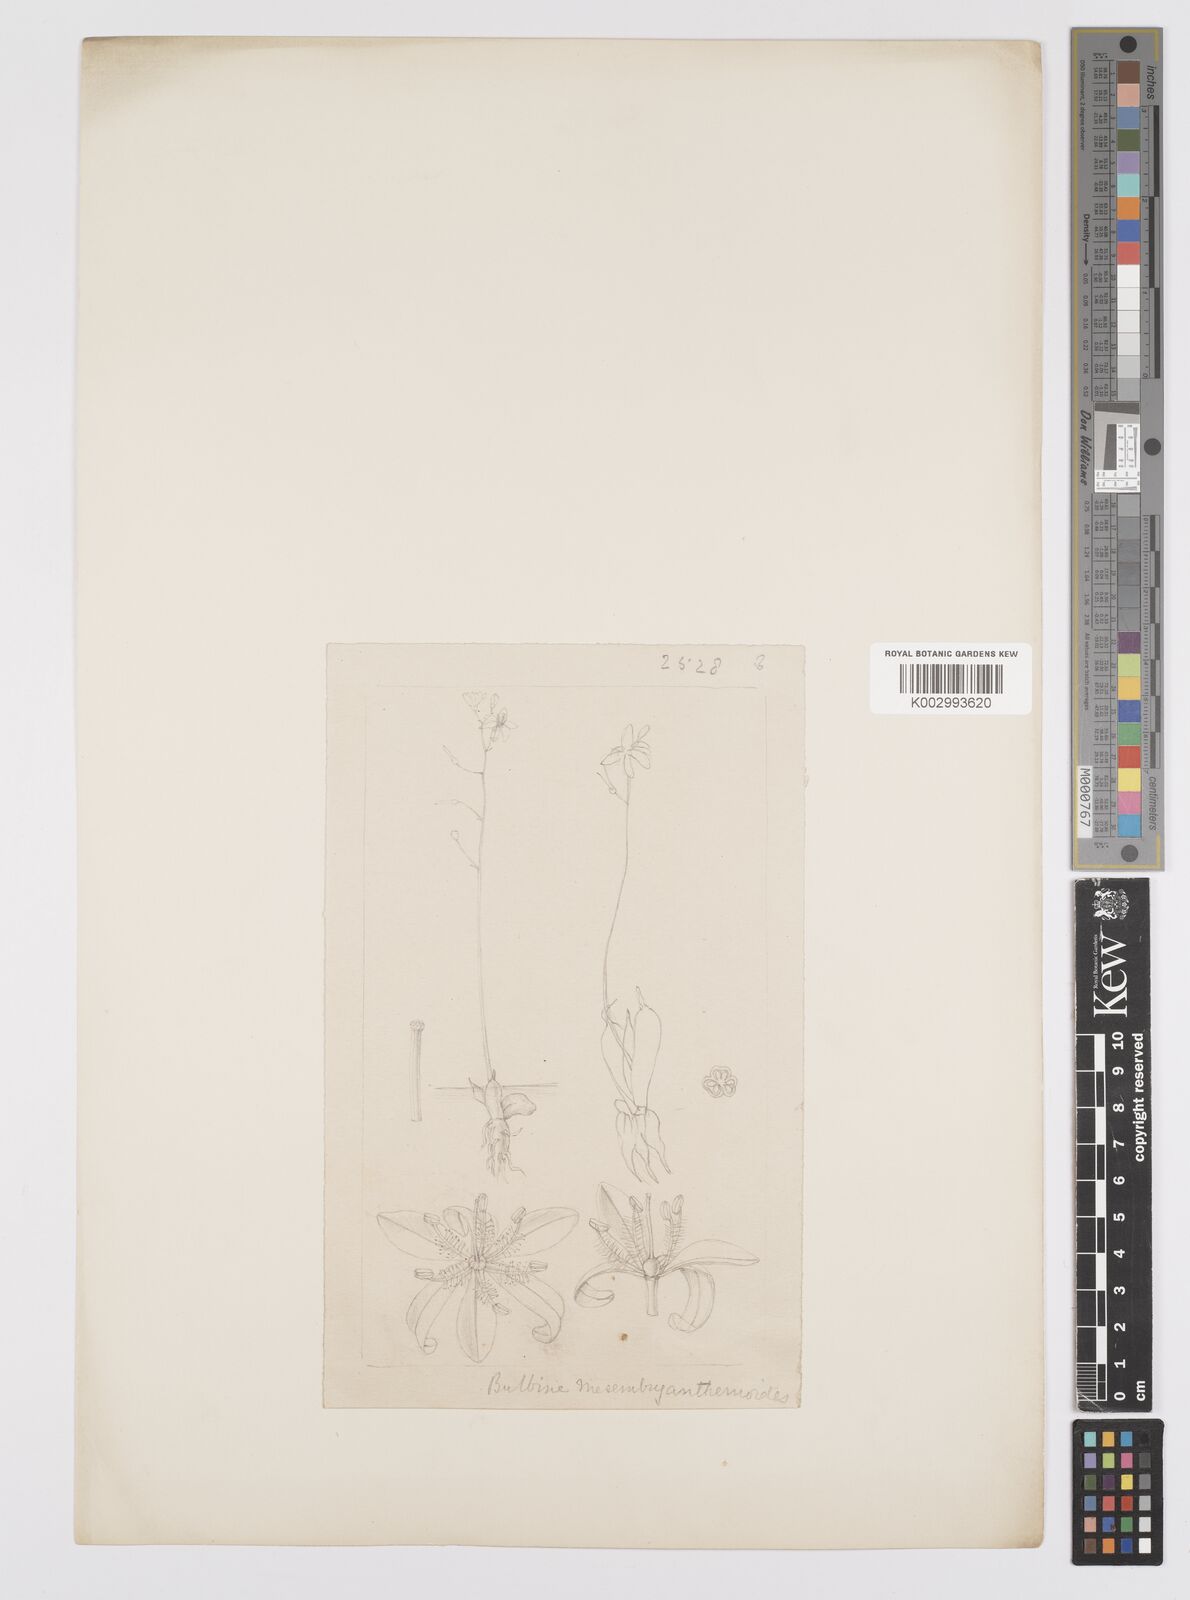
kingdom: Plantae
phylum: Tracheophyta
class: Liliopsida
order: Asparagales
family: Asphodelaceae
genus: Bulbine
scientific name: Bulbine mesembryanthemoides
